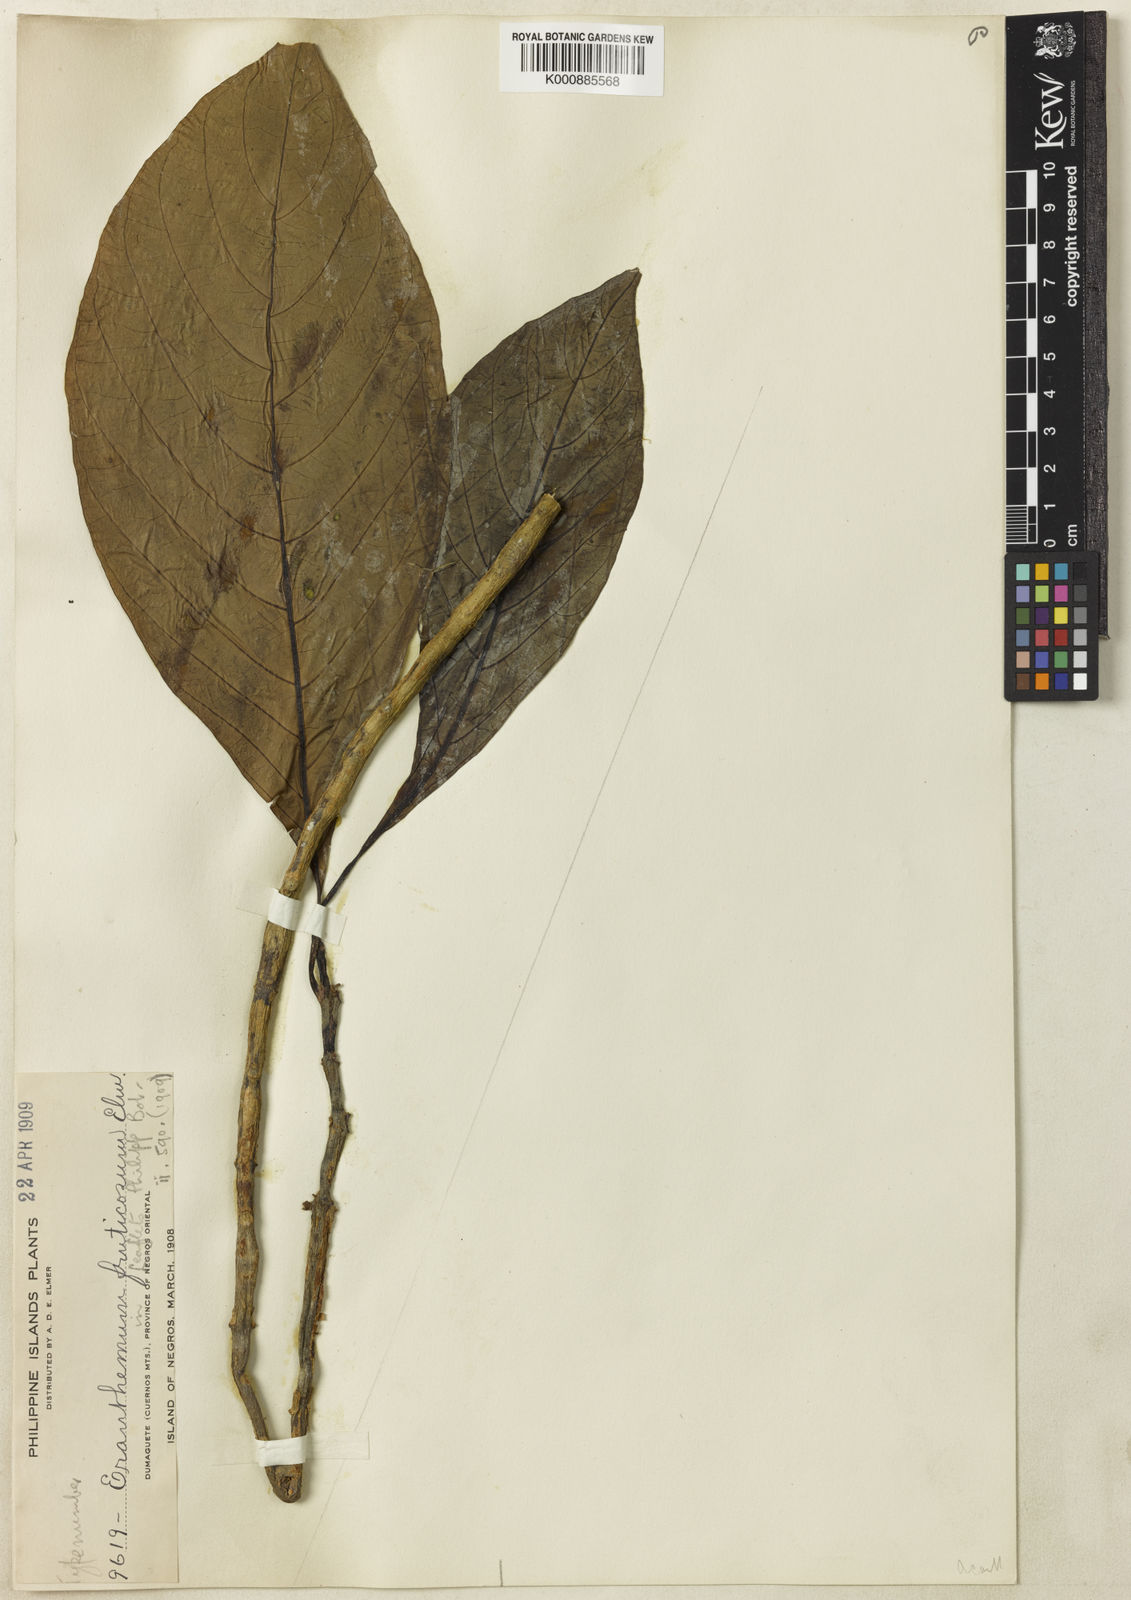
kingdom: Plantae
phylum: Tracheophyta
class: Magnoliopsida
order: Lamiales
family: Acanthaceae
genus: Pseuderanthemum
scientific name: Pseuderanthemum fruticosum
